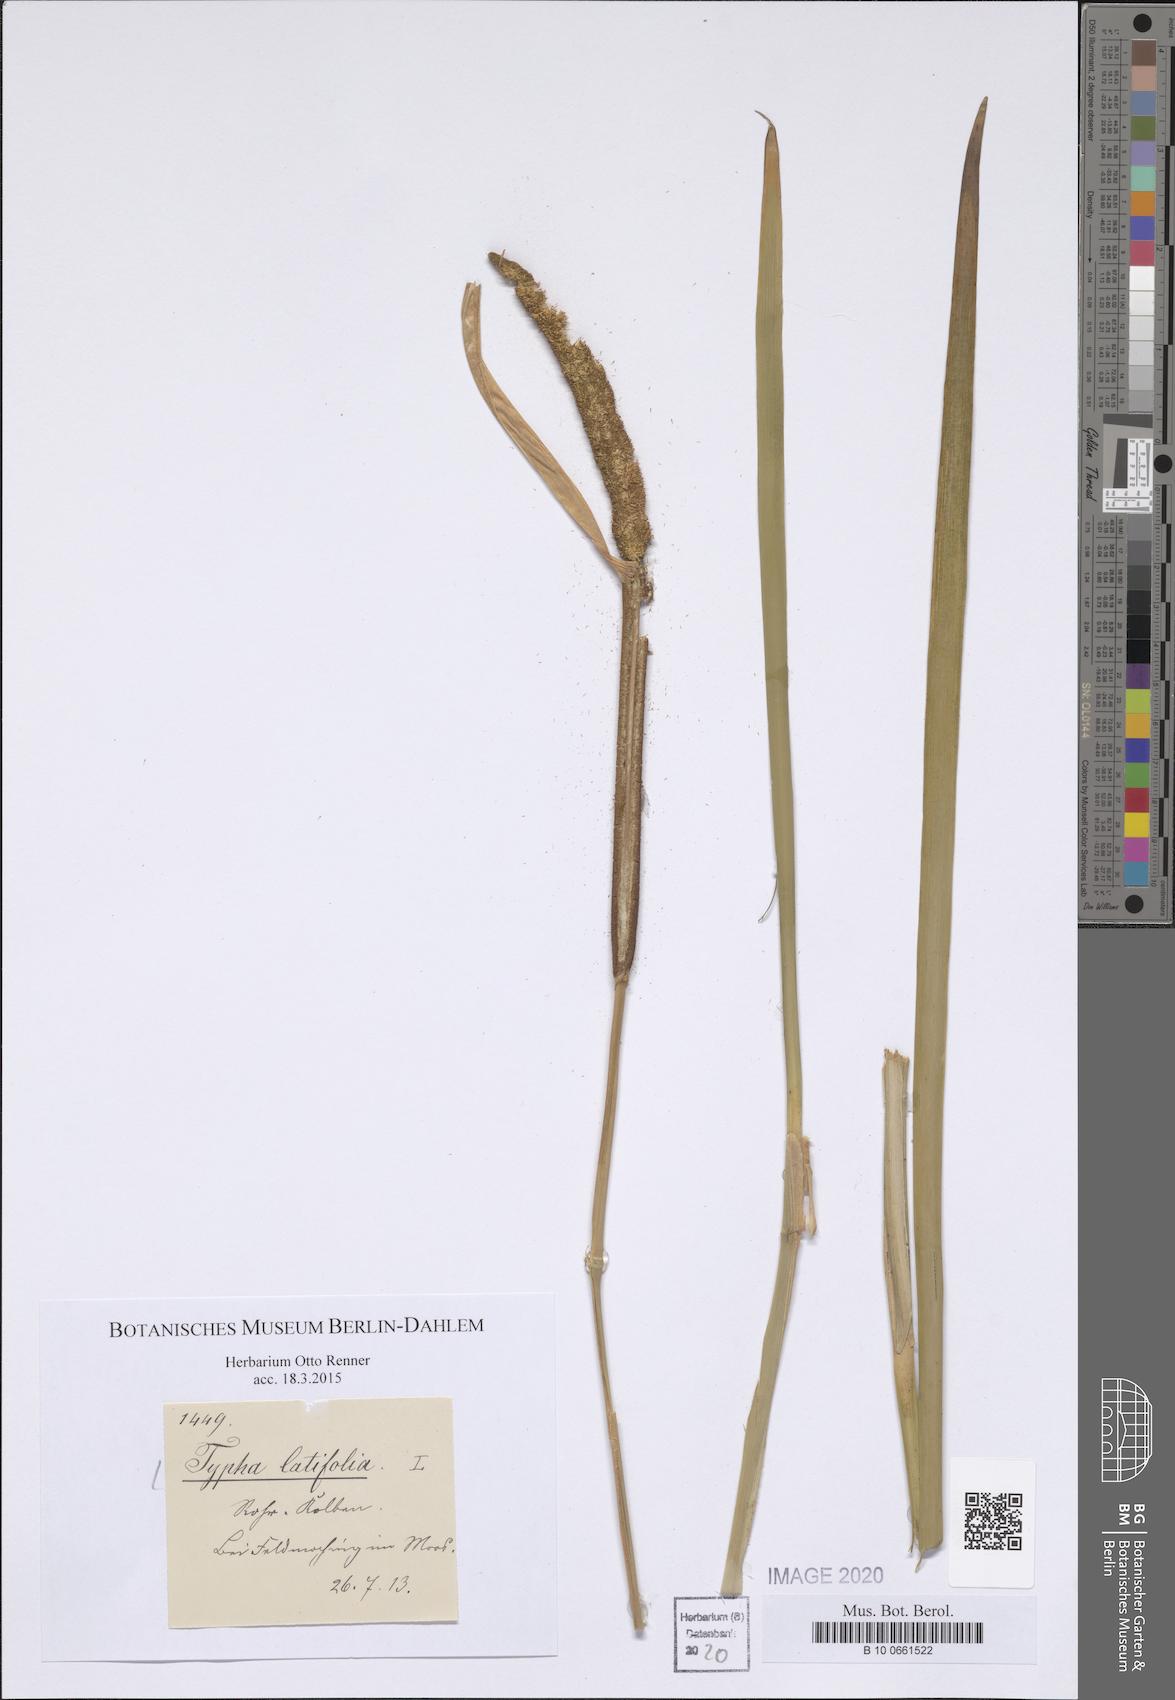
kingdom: Plantae
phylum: Tracheophyta
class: Liliopsida
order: Poales
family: Typhaceae
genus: Typha
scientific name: Typha latifolia
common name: Broadleaf cattail
